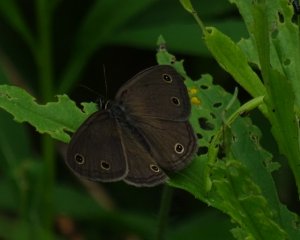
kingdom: Animalia
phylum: Arthropoda
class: Insecta
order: Lepidoptera
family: Nymphalidae
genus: Euptychia
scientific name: Euptychia cymela
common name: Little Wood Satyr
